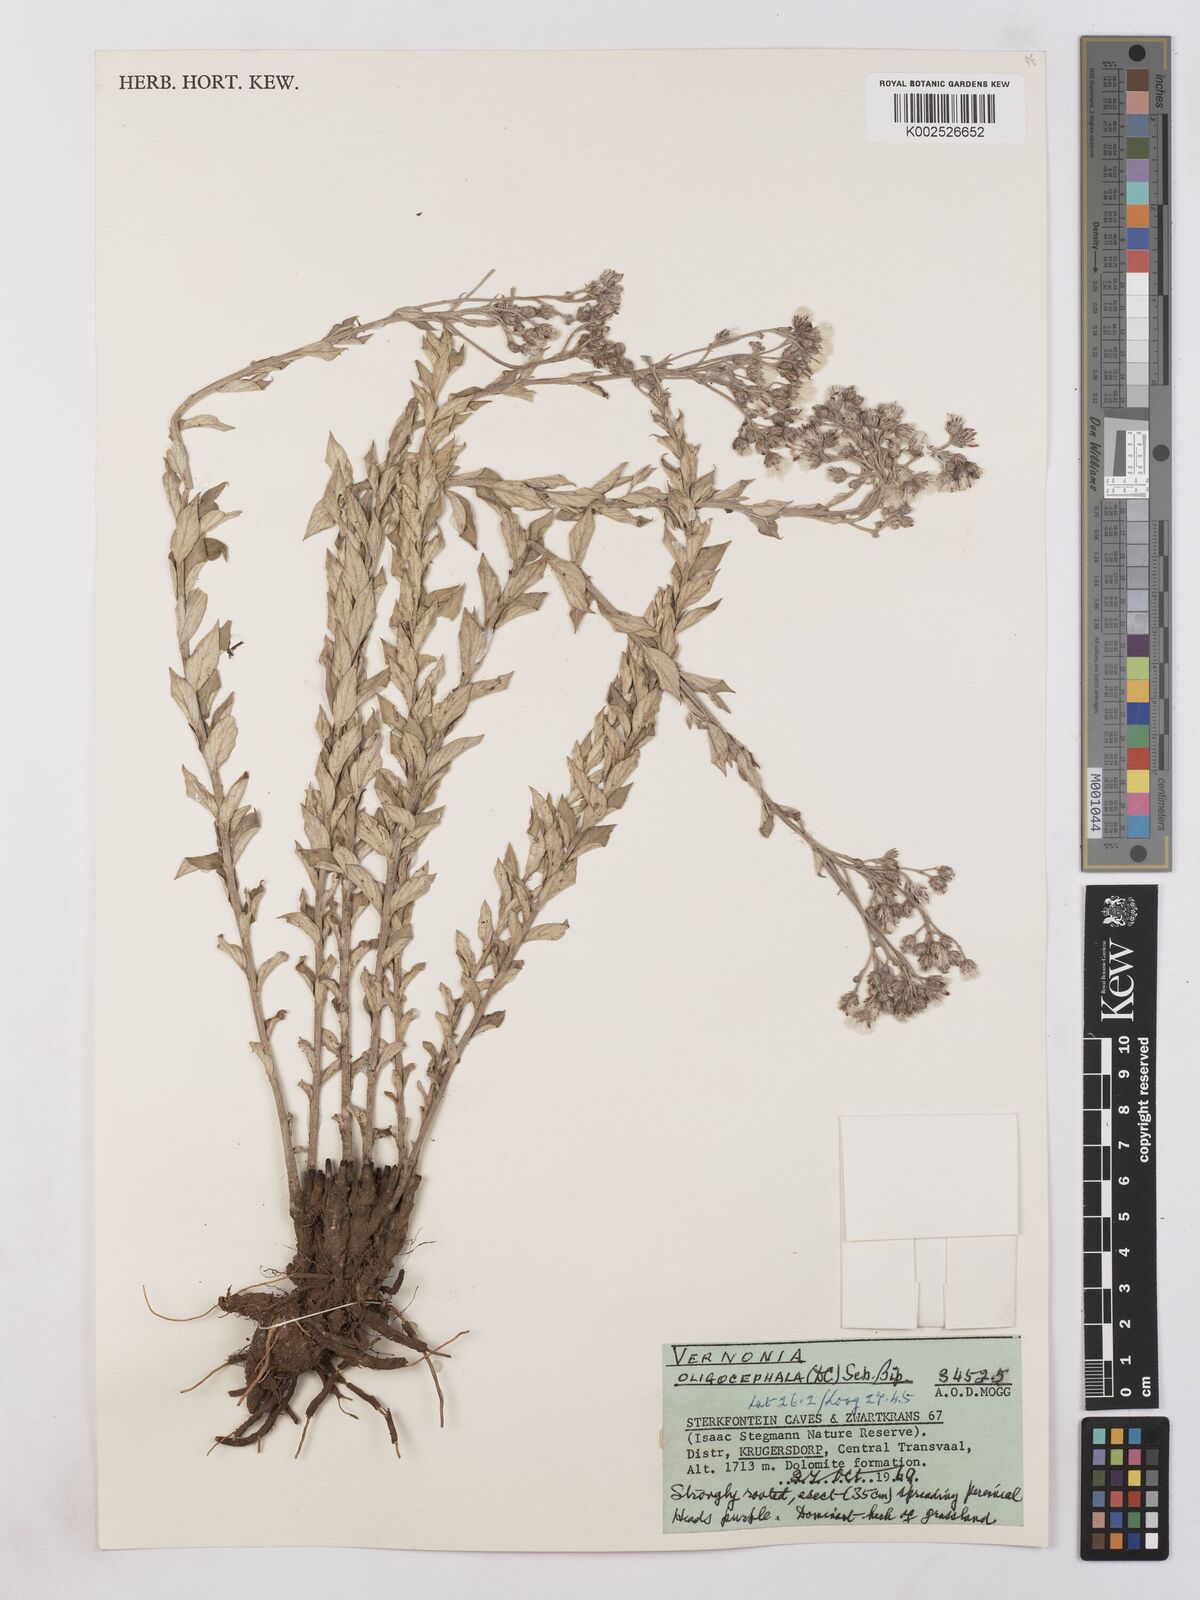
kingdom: Plantae
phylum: Tracheophyta
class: Magnoliopsida
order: Asterales
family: Asteraceae
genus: Hilliardiella
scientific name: Hilliardiella oligocephala
